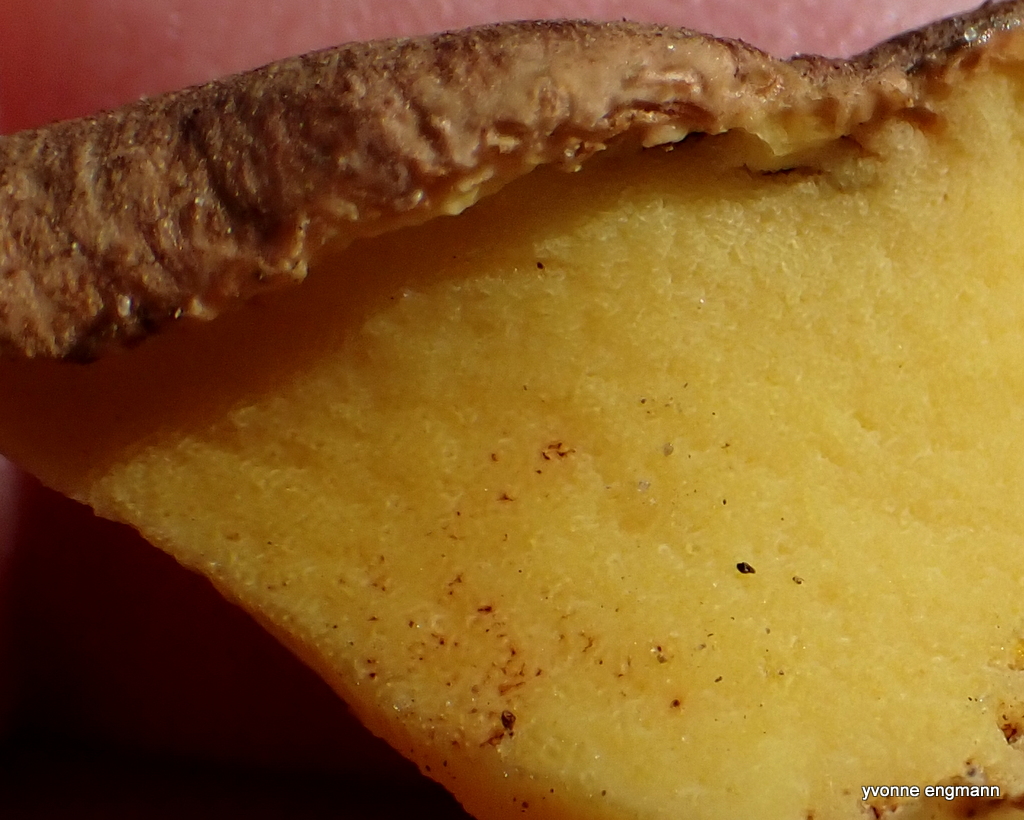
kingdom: Fungi
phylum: Basidiomycota
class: Agaricomycetes
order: Boletales
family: Boletaceae
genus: Butyriboletus
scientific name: Butyriboletus appendiculatus
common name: tenstokket rørhat
